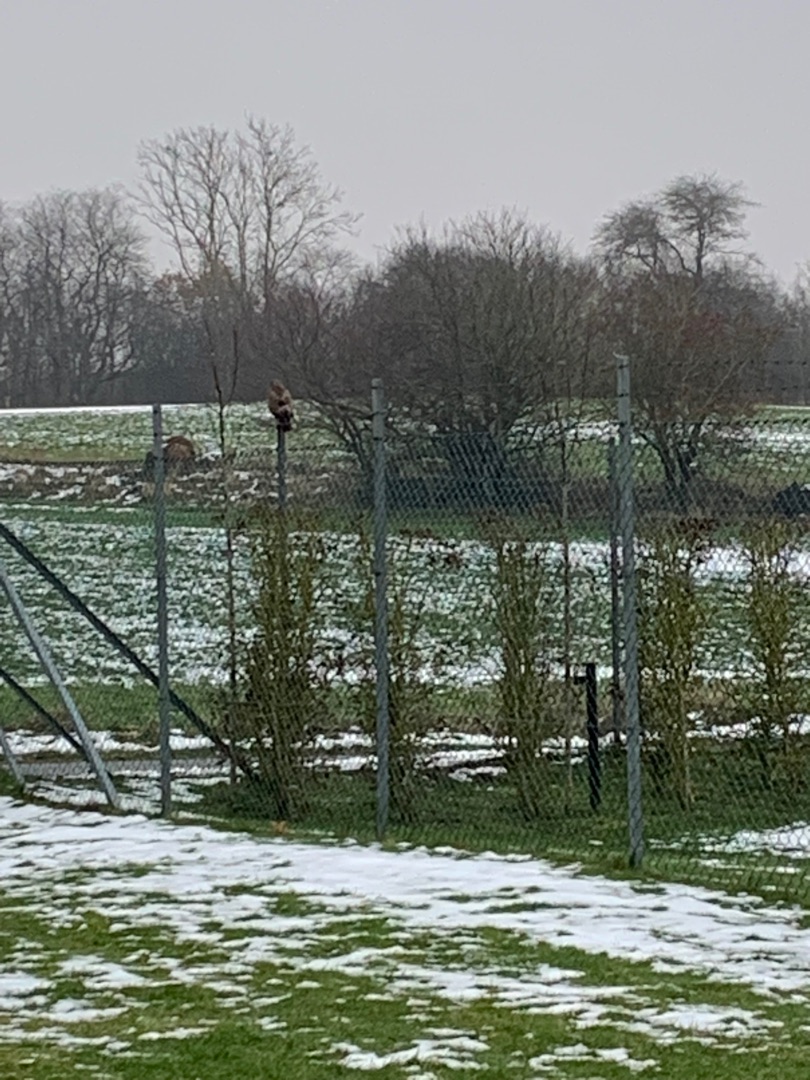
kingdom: Animalia
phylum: Chordata
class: Aves
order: Accipitriformes
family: Accipitridae
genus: Buteo
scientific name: Buteo buteo
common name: Musvåge
